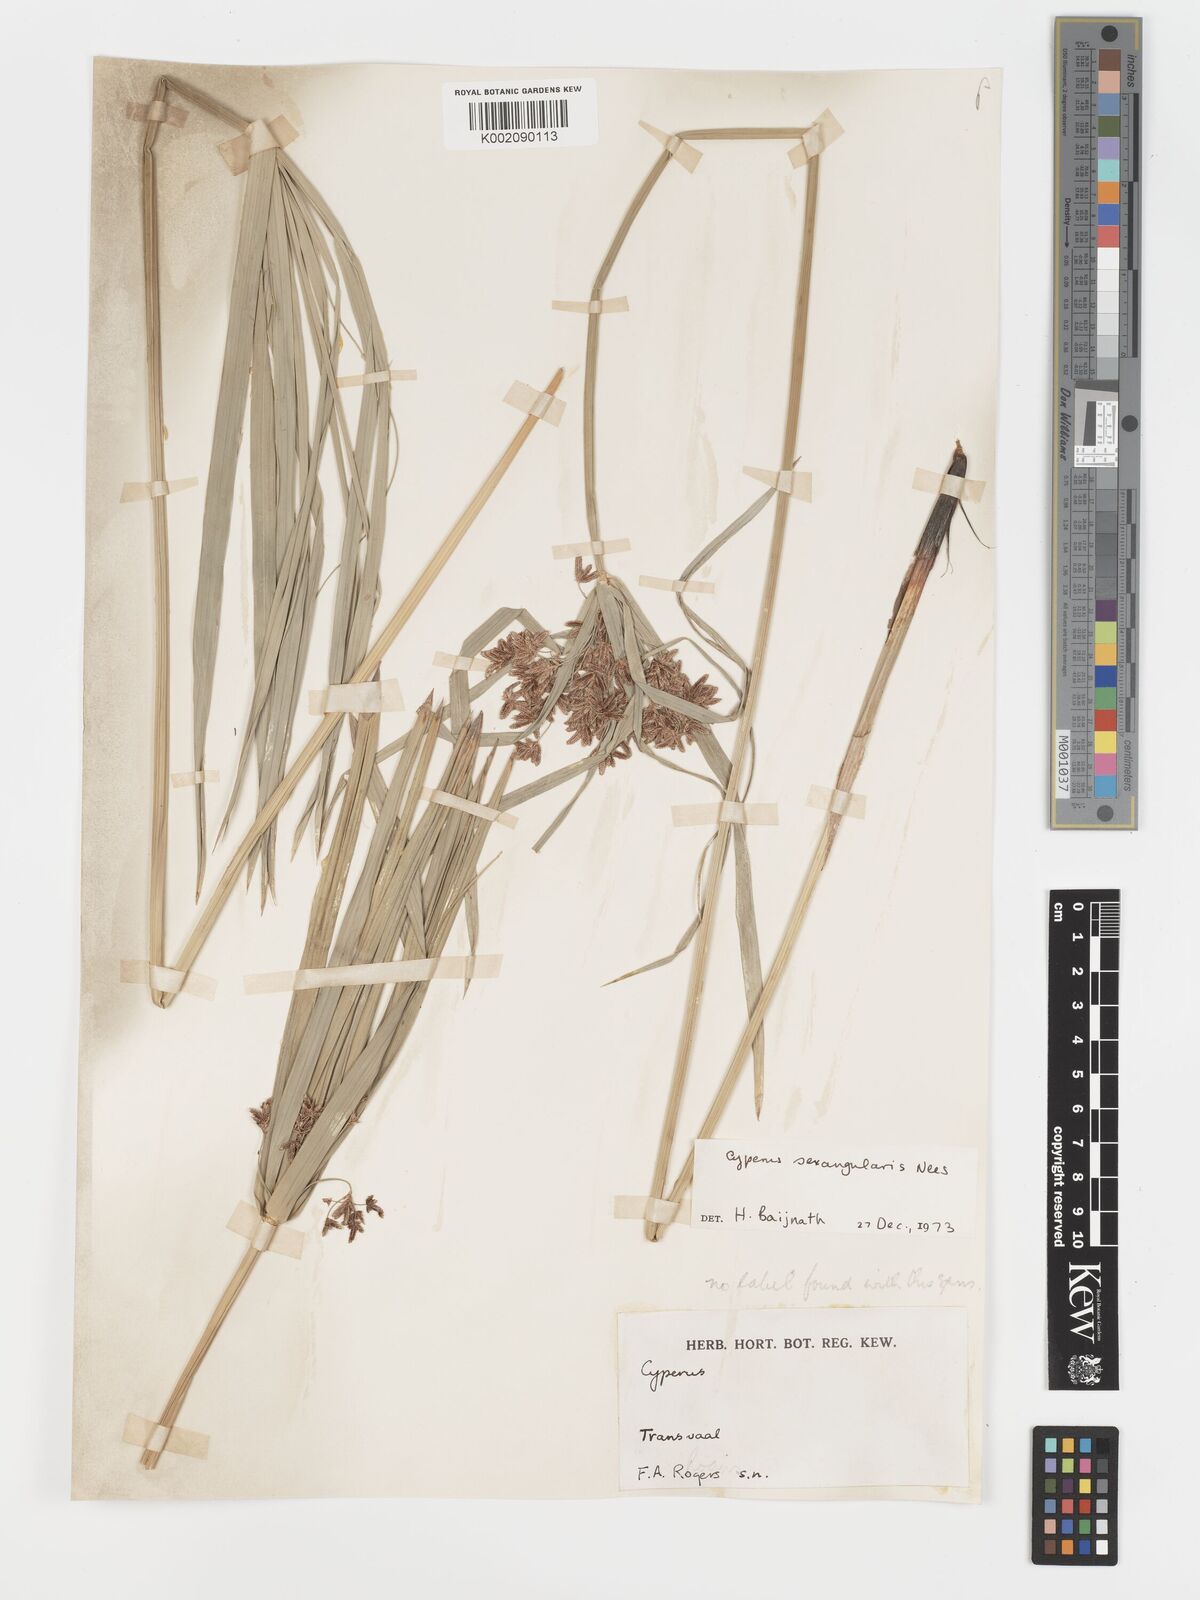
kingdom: Plantae
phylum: Tracheophyta
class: Liliopsida
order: Poales
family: Cyperaceae
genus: Cyperus
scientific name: Cyperus sexangularis
